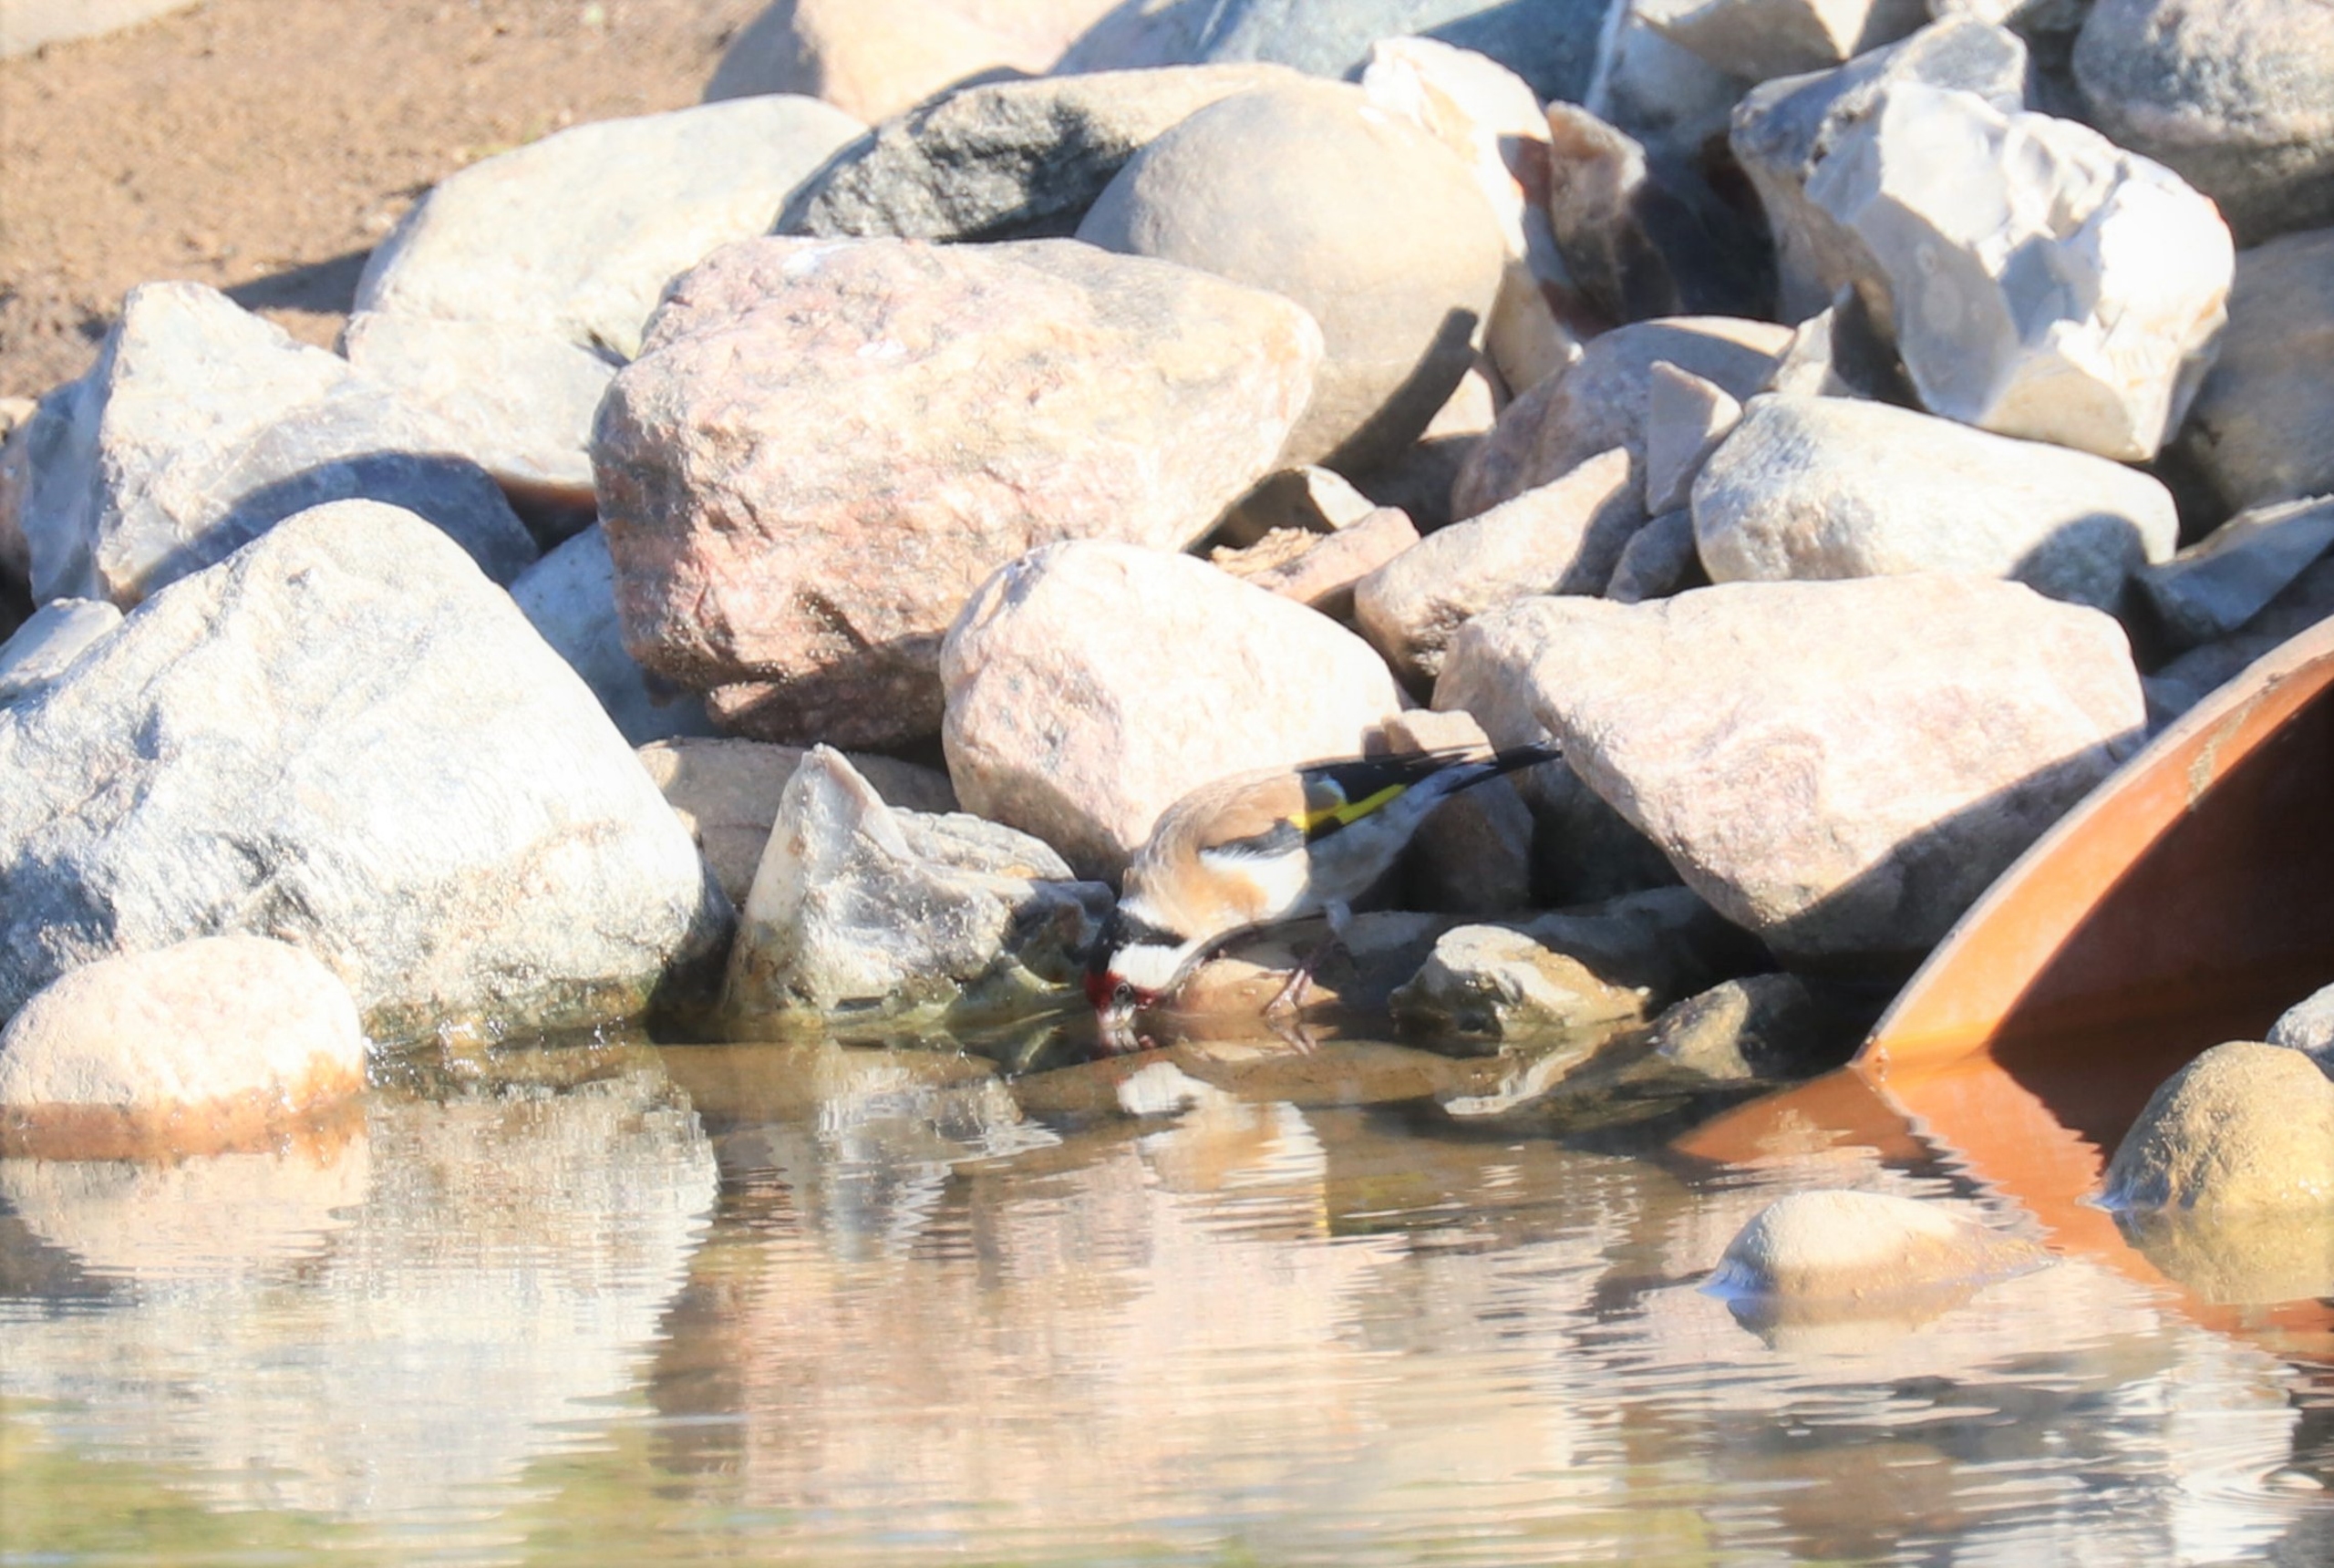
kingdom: Animalia
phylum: Chordata
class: Aves
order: Passeriformes
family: Fringillidae
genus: Carduelis
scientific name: Carduelis carduelis
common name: Stillits
